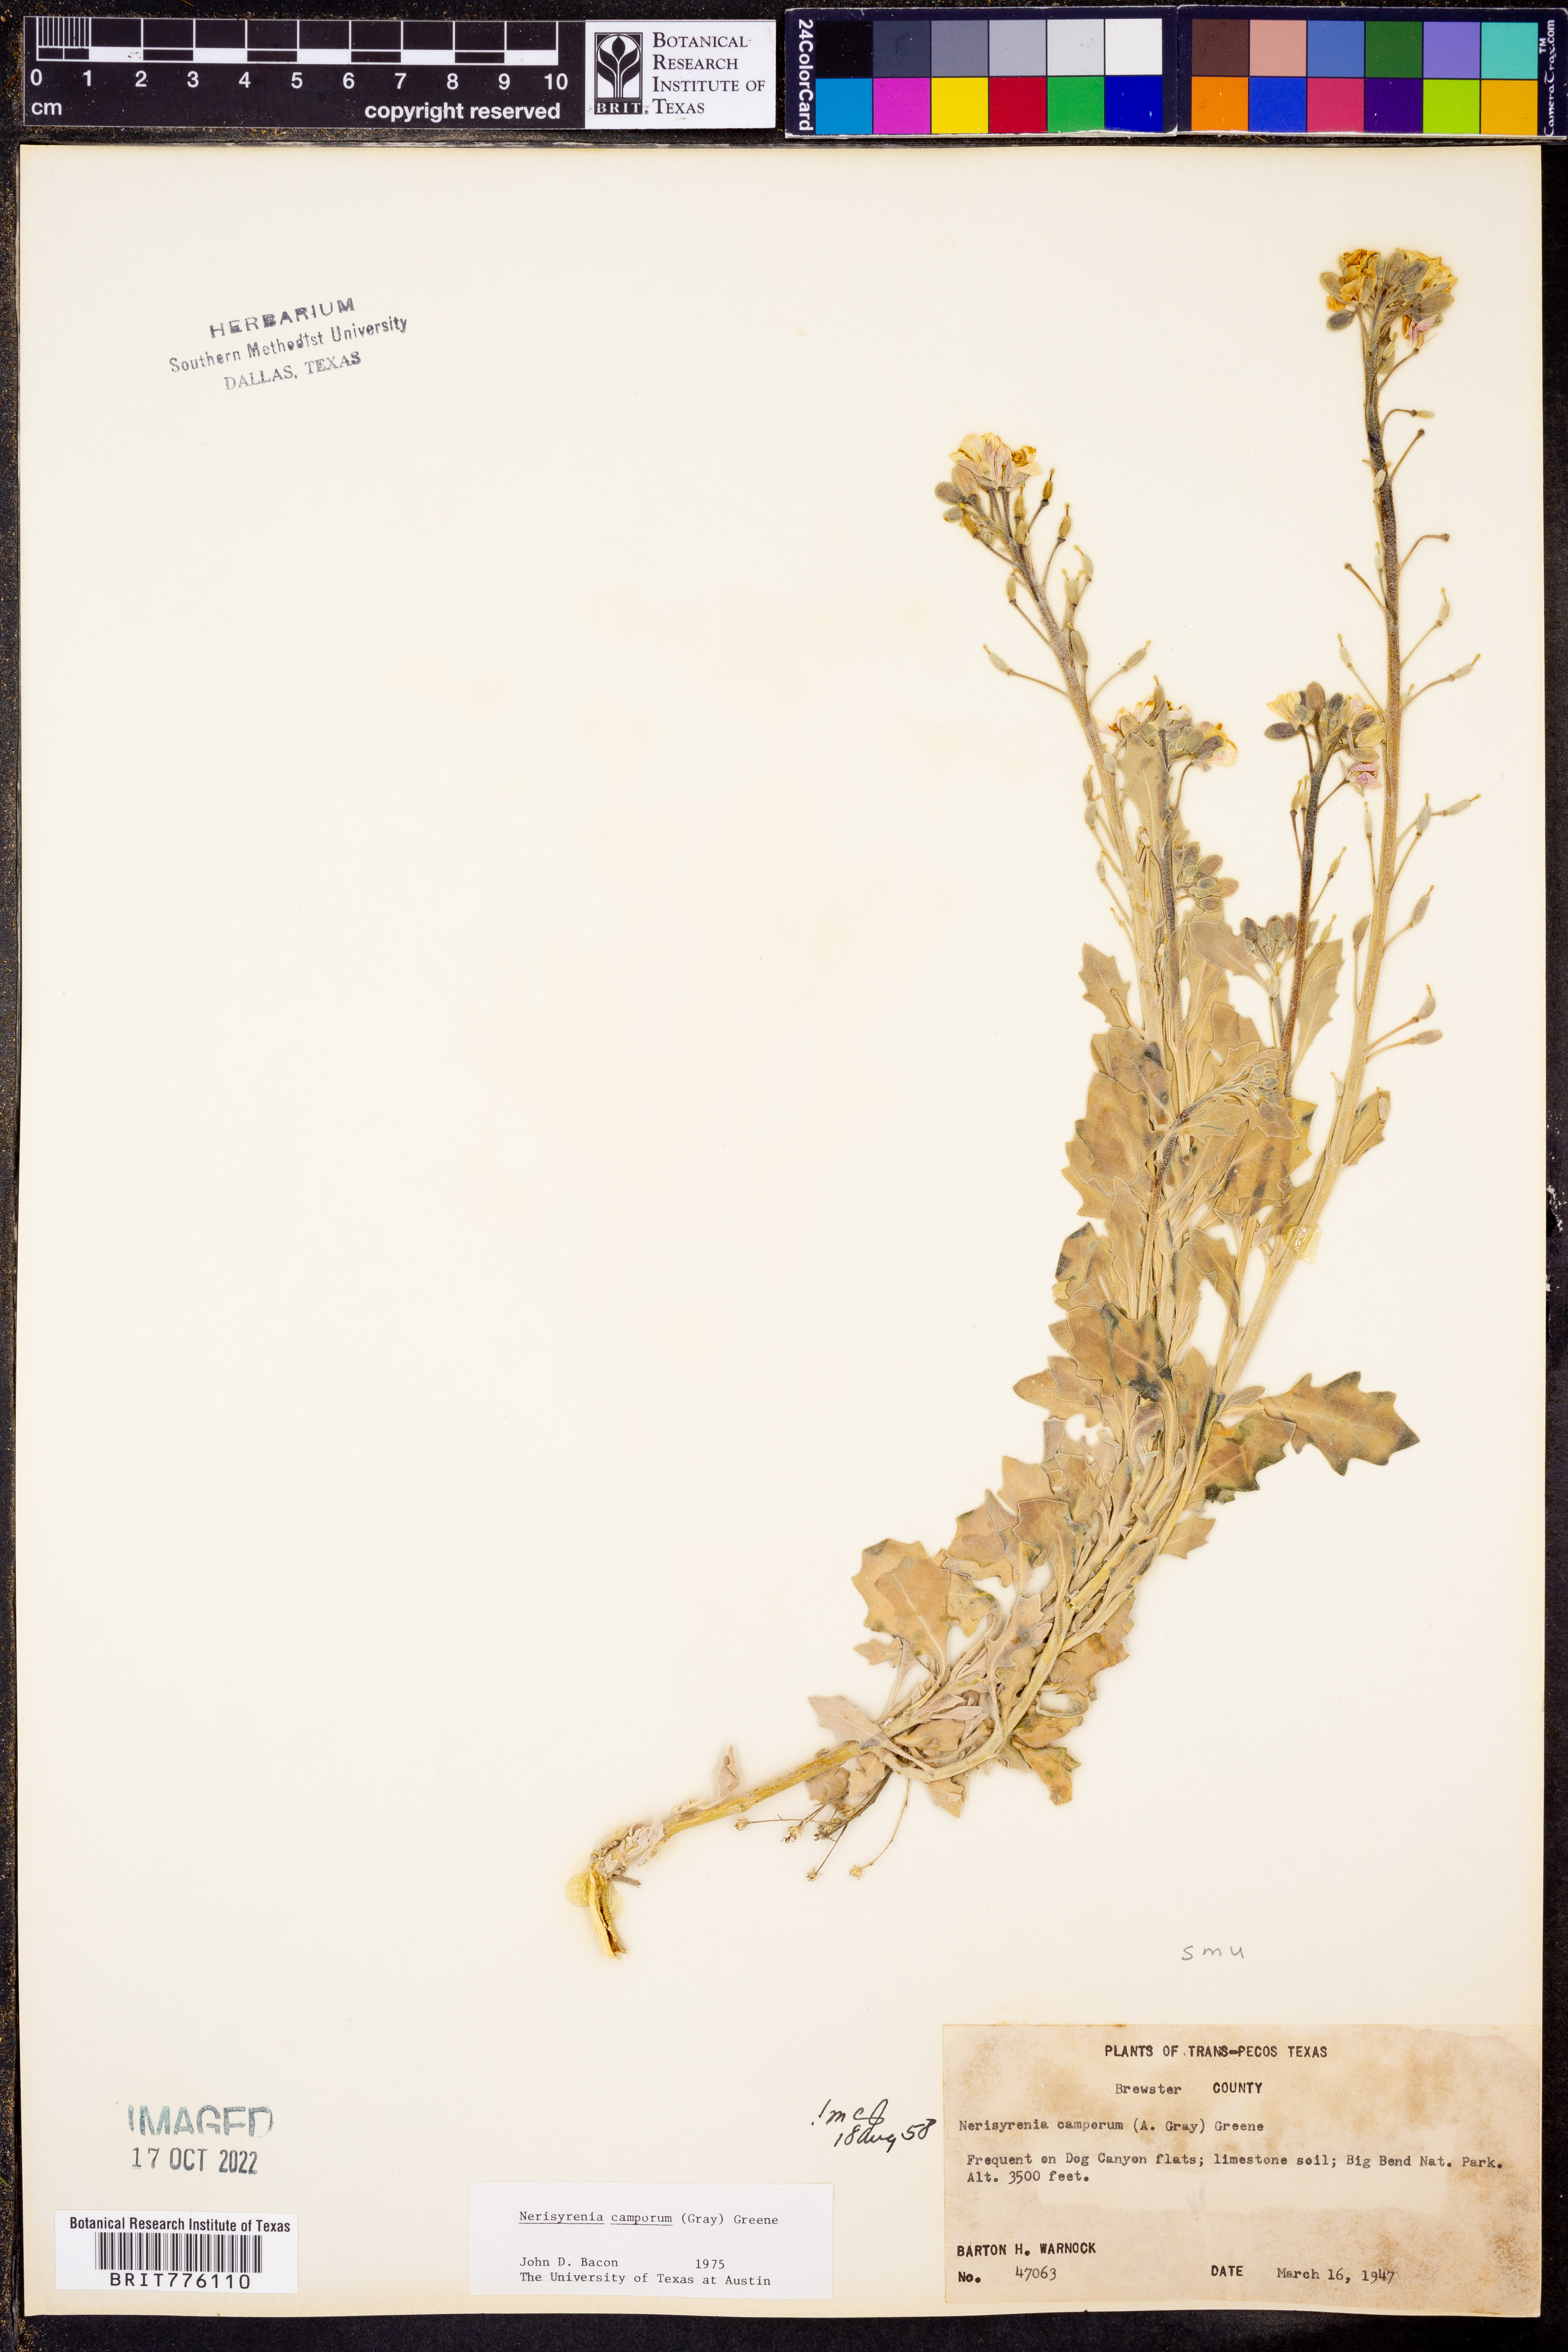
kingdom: Plantae
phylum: Tracheophyta
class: Magnoliopsida
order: Brassicales
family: Brassicaceae
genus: Nerisyrenia
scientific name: Nerisyrenia camporum
